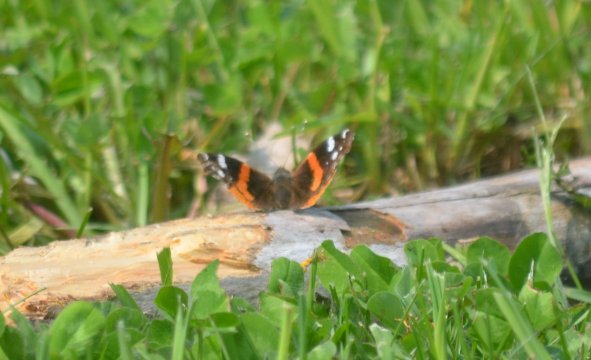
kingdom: Animalia
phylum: Arthropoda
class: Insecta
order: Lepidoptera
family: Nymphalidae
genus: Vanessa
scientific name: Vanessa atalanta
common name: Red Admiral
